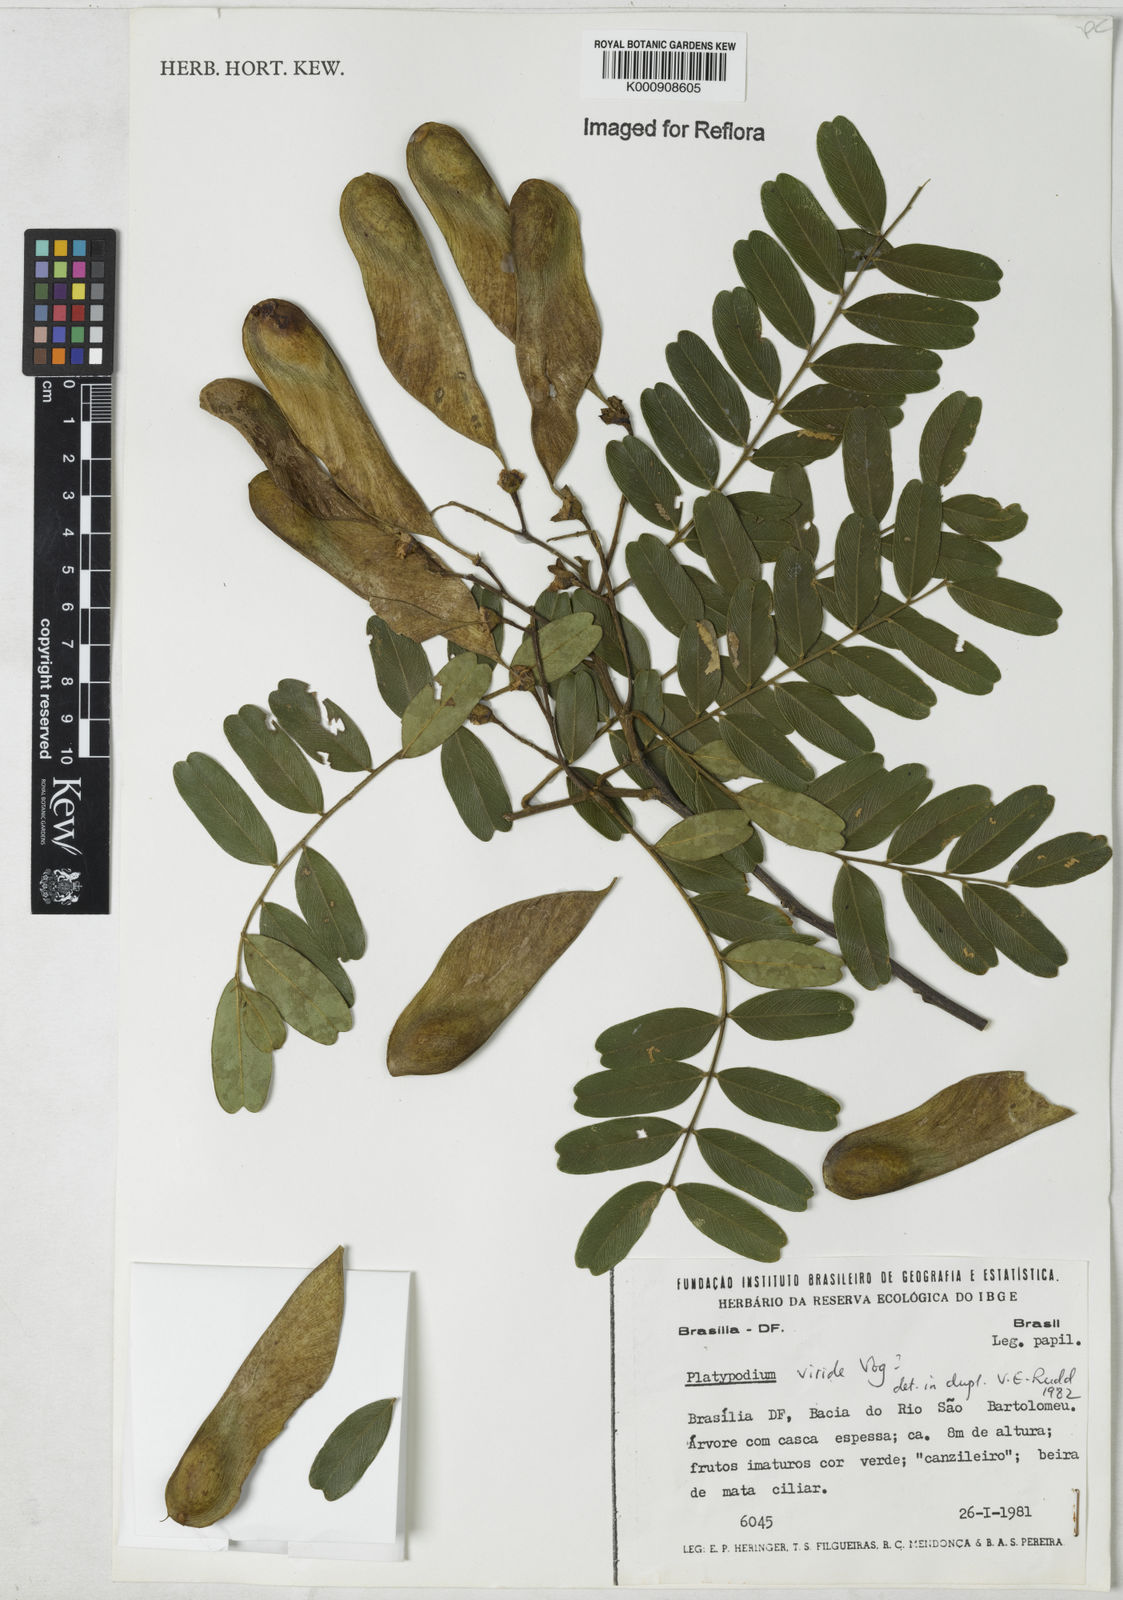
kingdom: Plantae
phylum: Tracheophyta
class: Magnoliopsida
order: Fabales
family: Fabaceae
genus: Platypodium
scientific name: Platypodium viride
